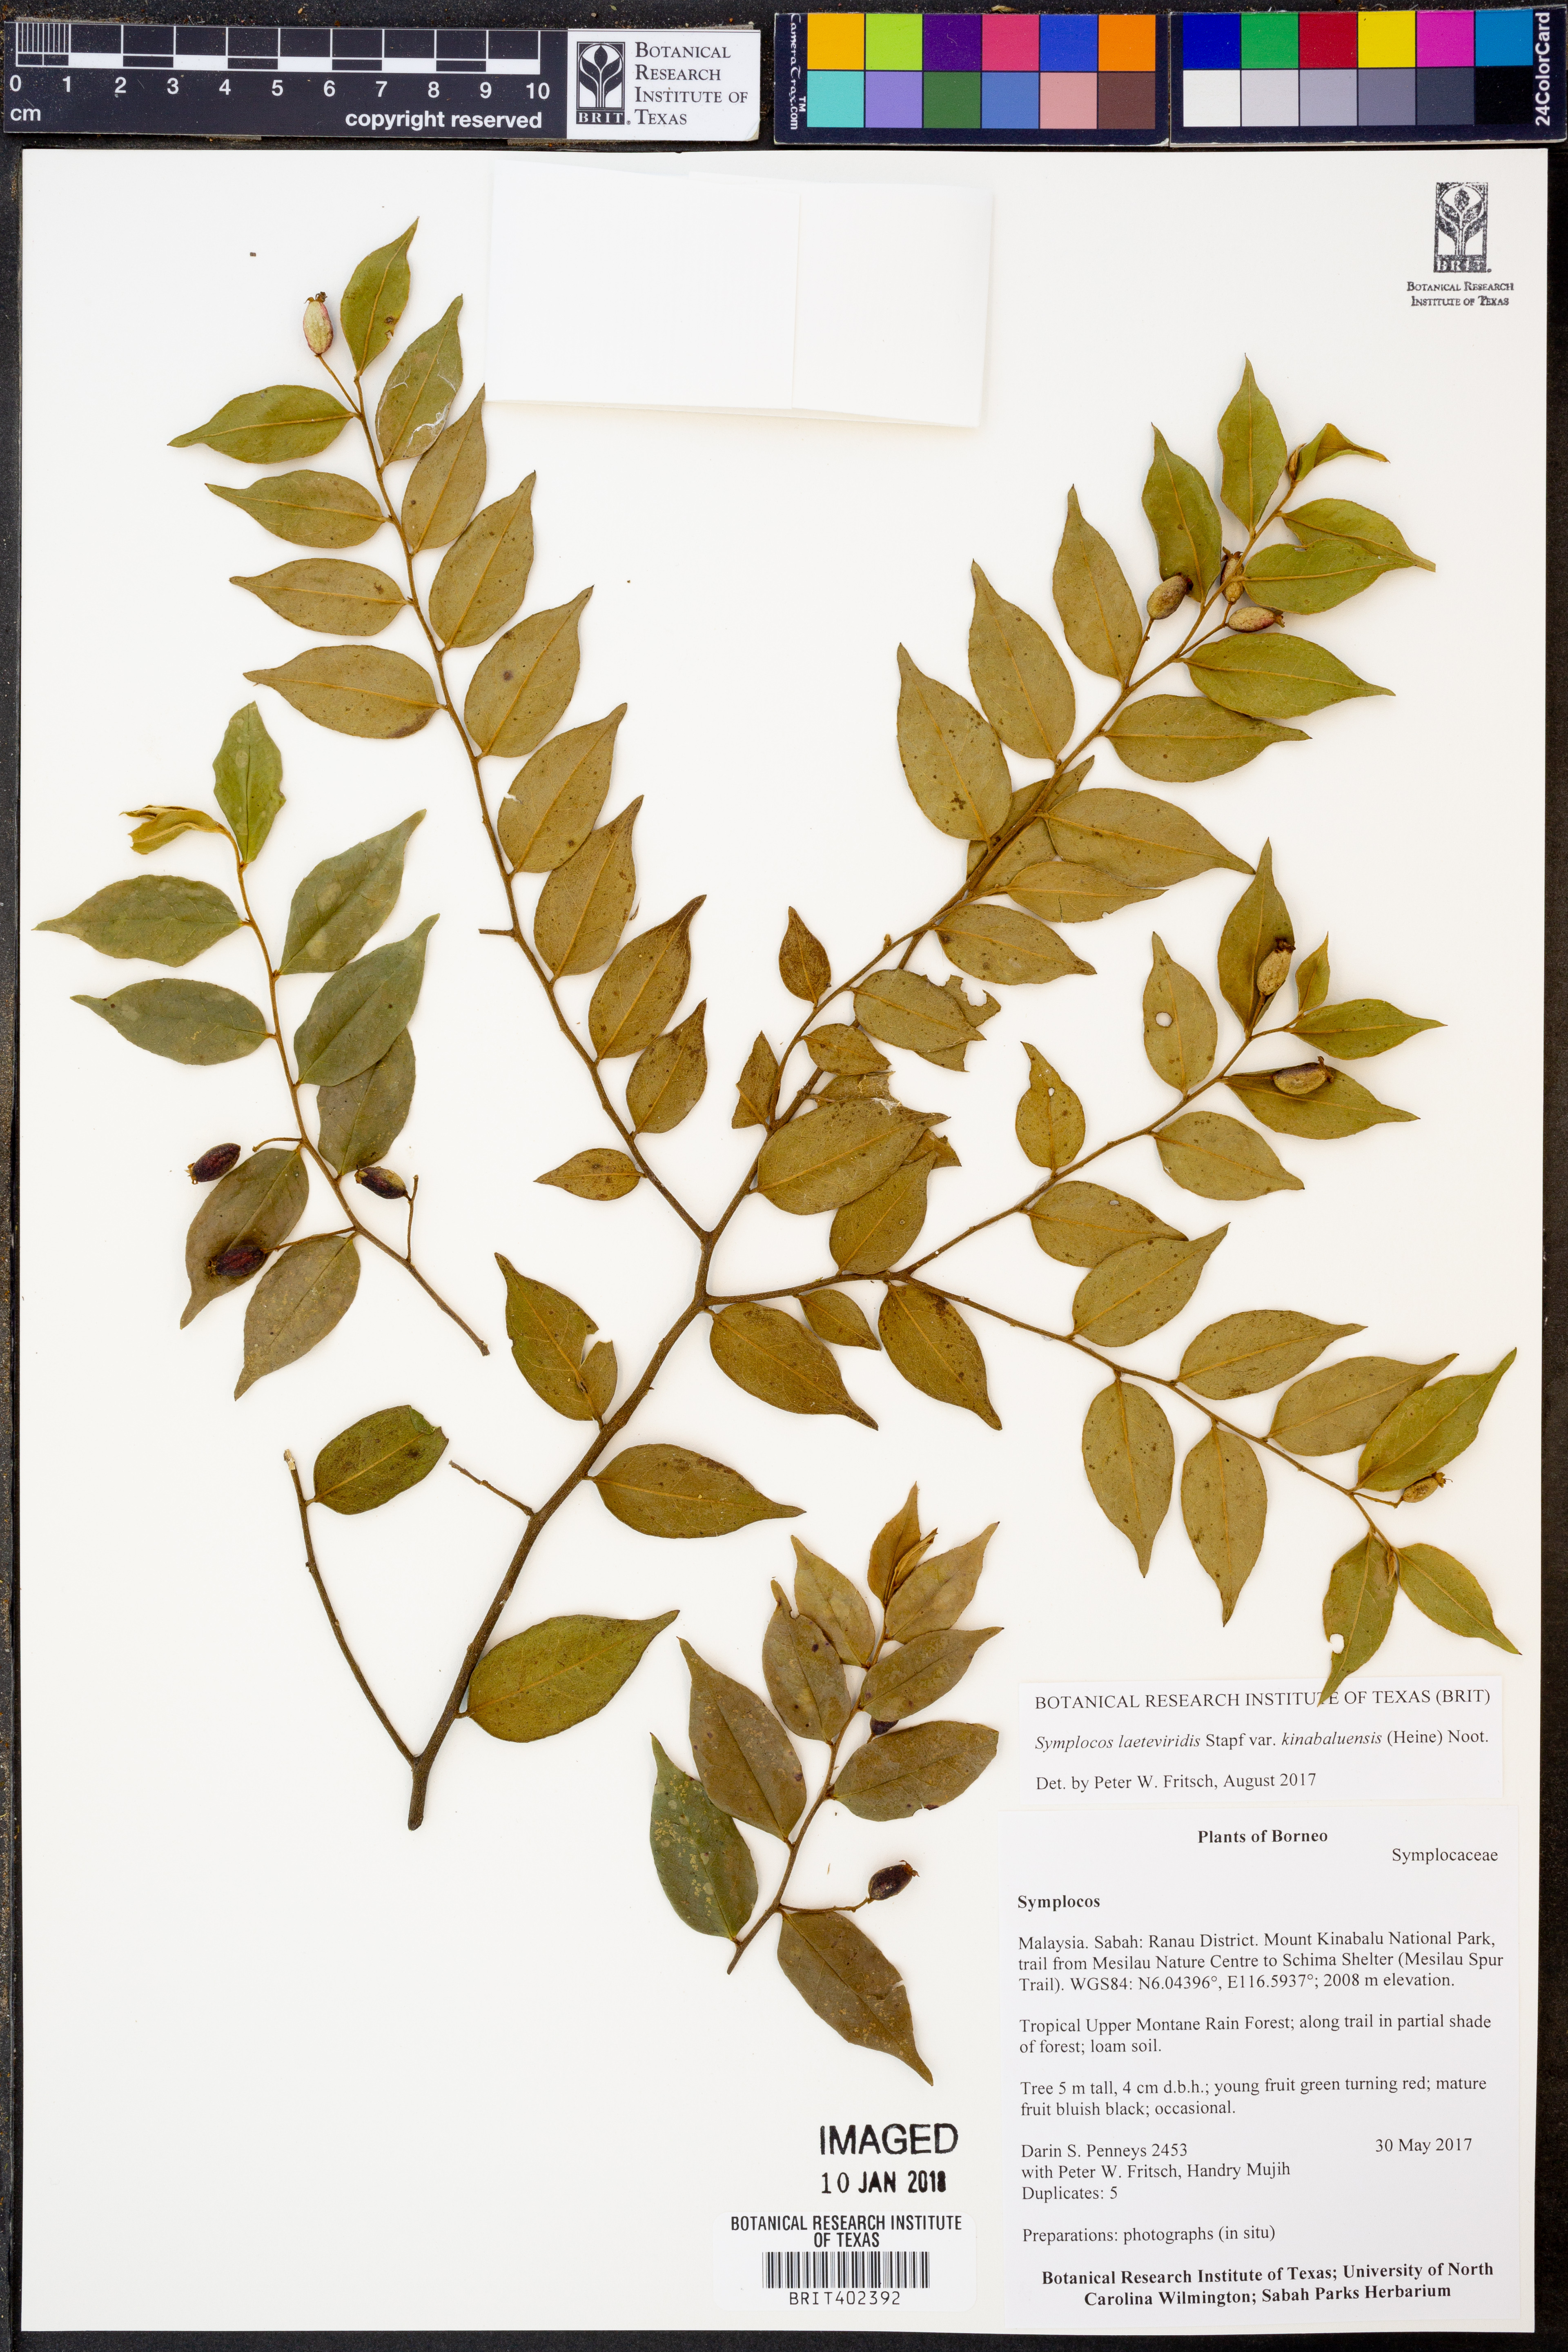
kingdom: Plantae
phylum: Tracheophyta
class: Magnoliopsida
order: Ericales
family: Symplocaceae
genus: Symplocos
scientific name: Symplocos laeteviridis
